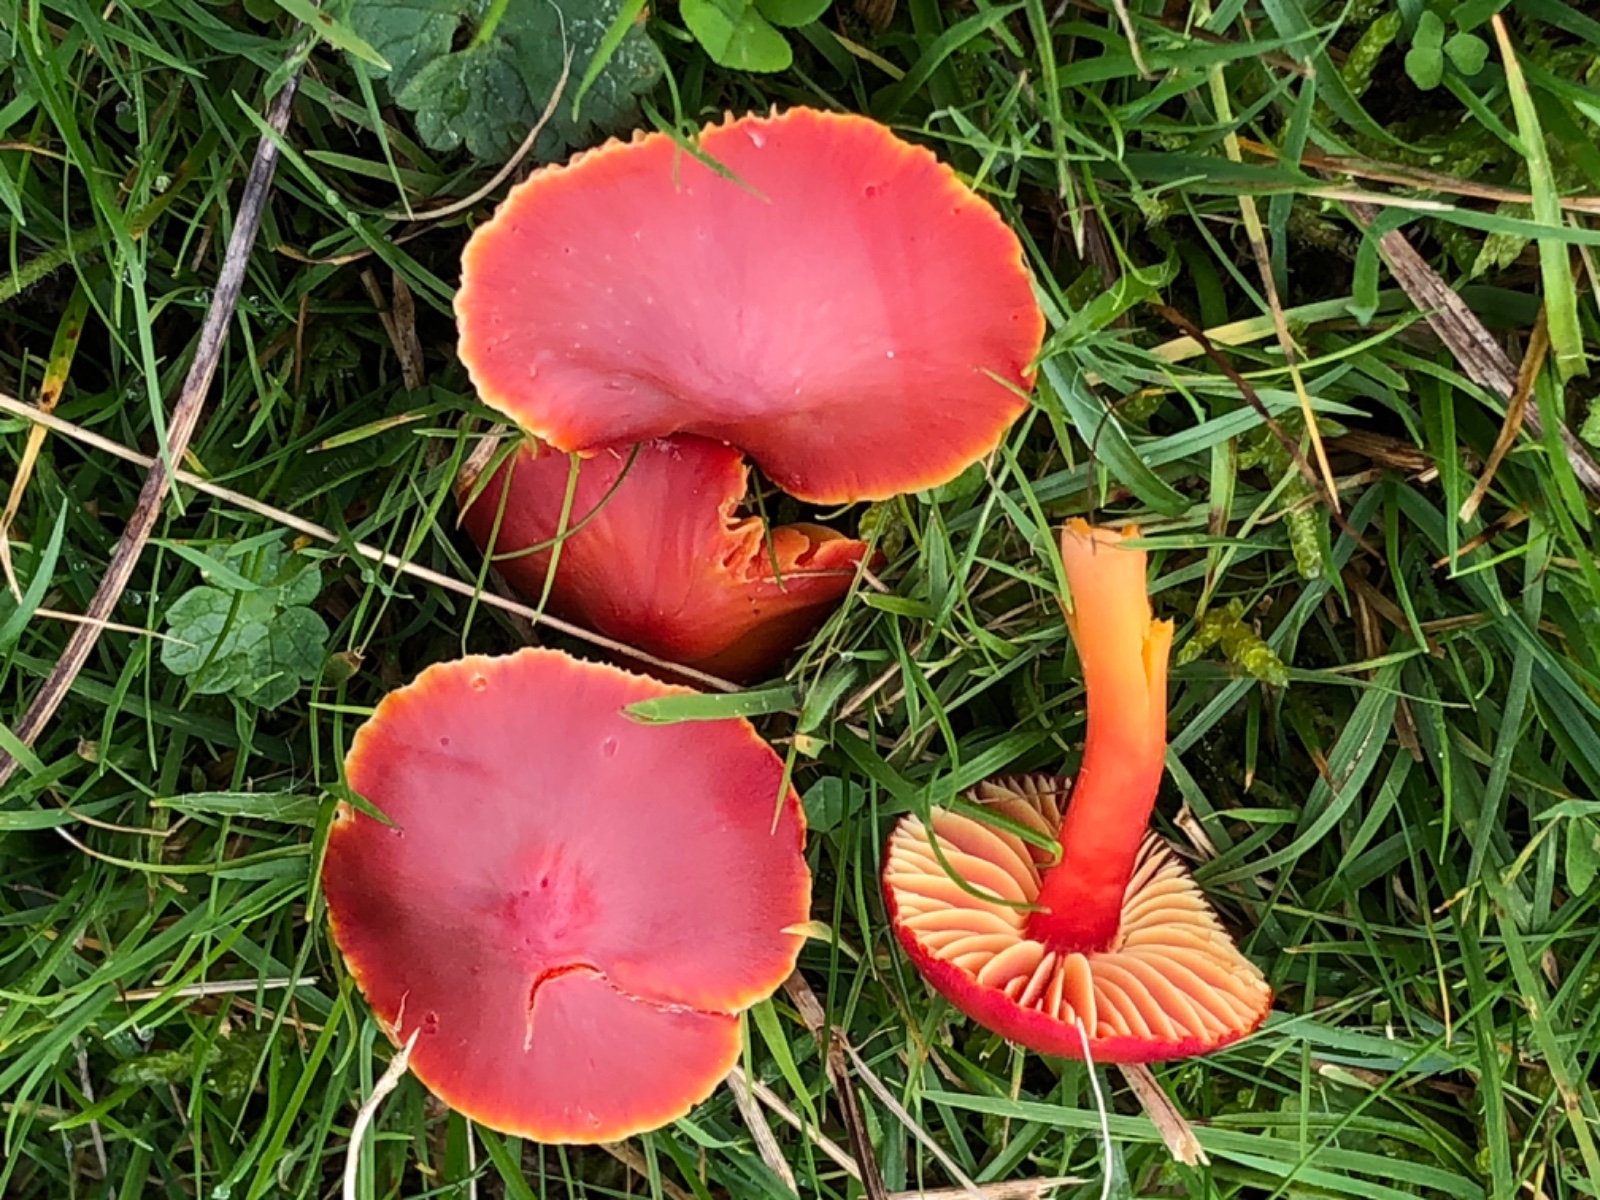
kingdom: Fungi
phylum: Basidiomycota
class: Agaricomycetes
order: Agaricales
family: Hygrophoraceae
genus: Hygrocybe
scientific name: Hygrocybe coccinea
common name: cinnober-vokshat
